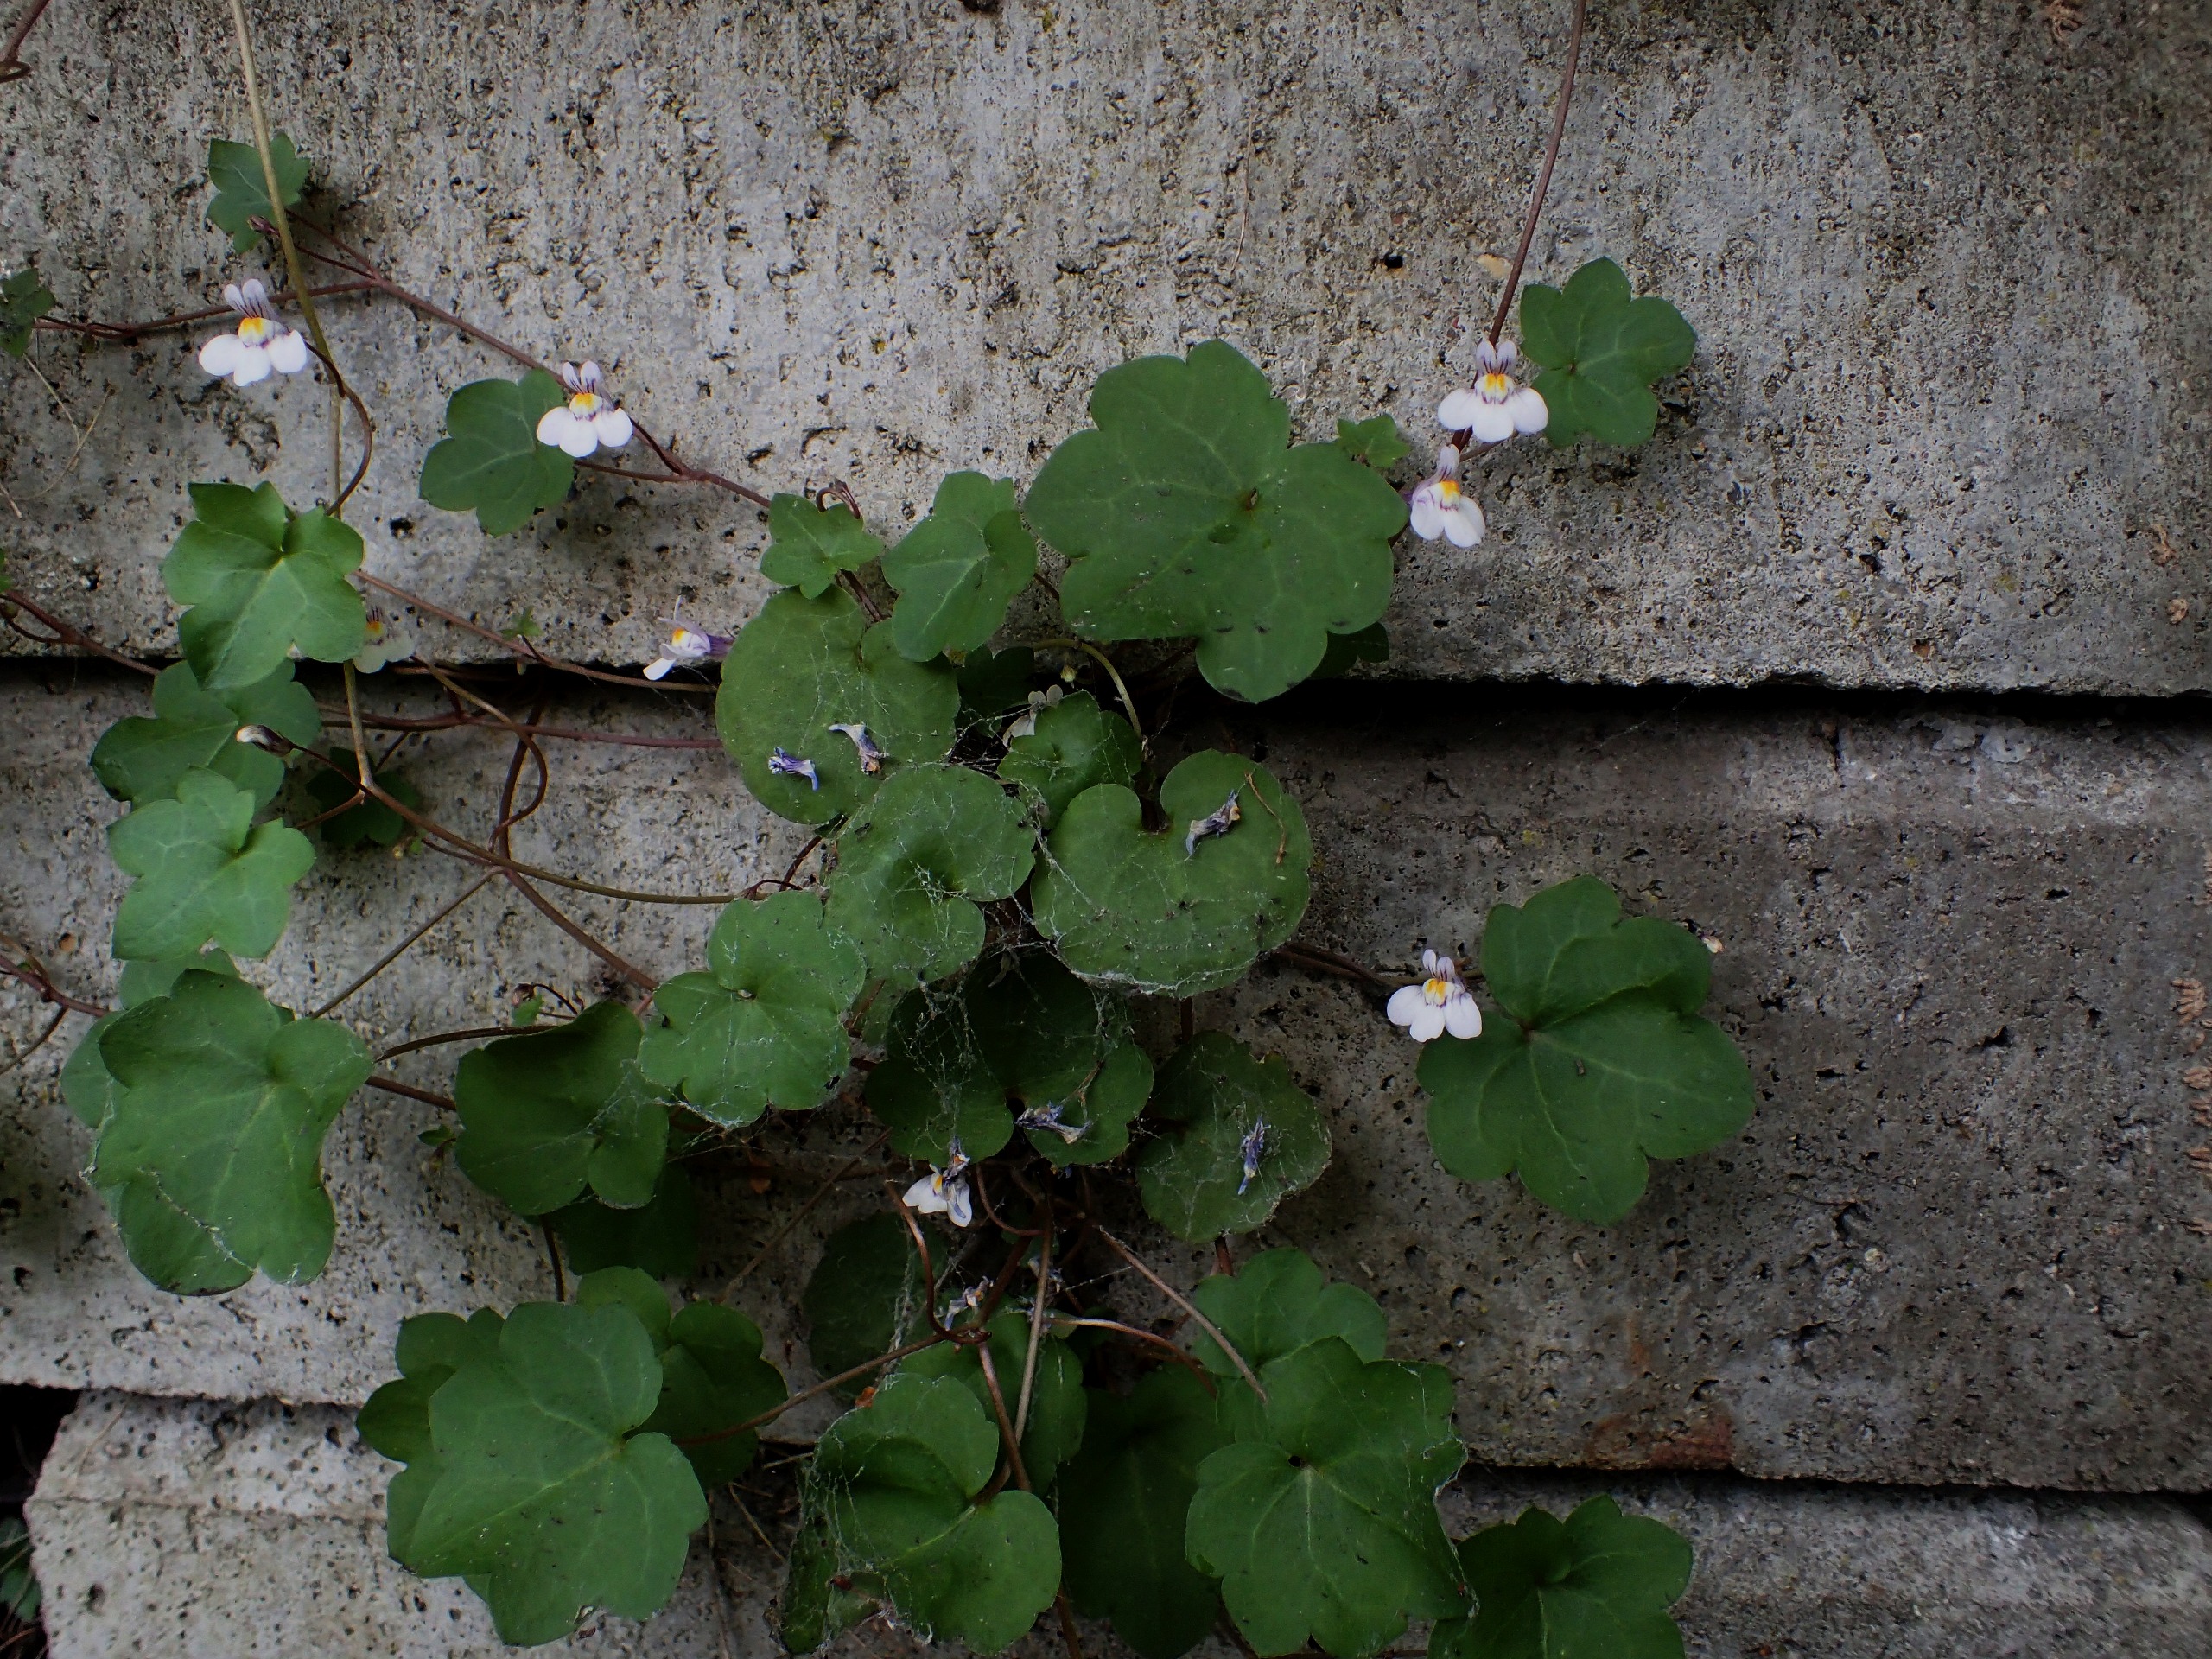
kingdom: Plantae
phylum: Tracheophyta
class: Magnoliopsida
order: Lamiales
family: Plantaginaceae
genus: Cymbalaria
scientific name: Cymbalaria muralis
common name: Vedbend-torskemund
